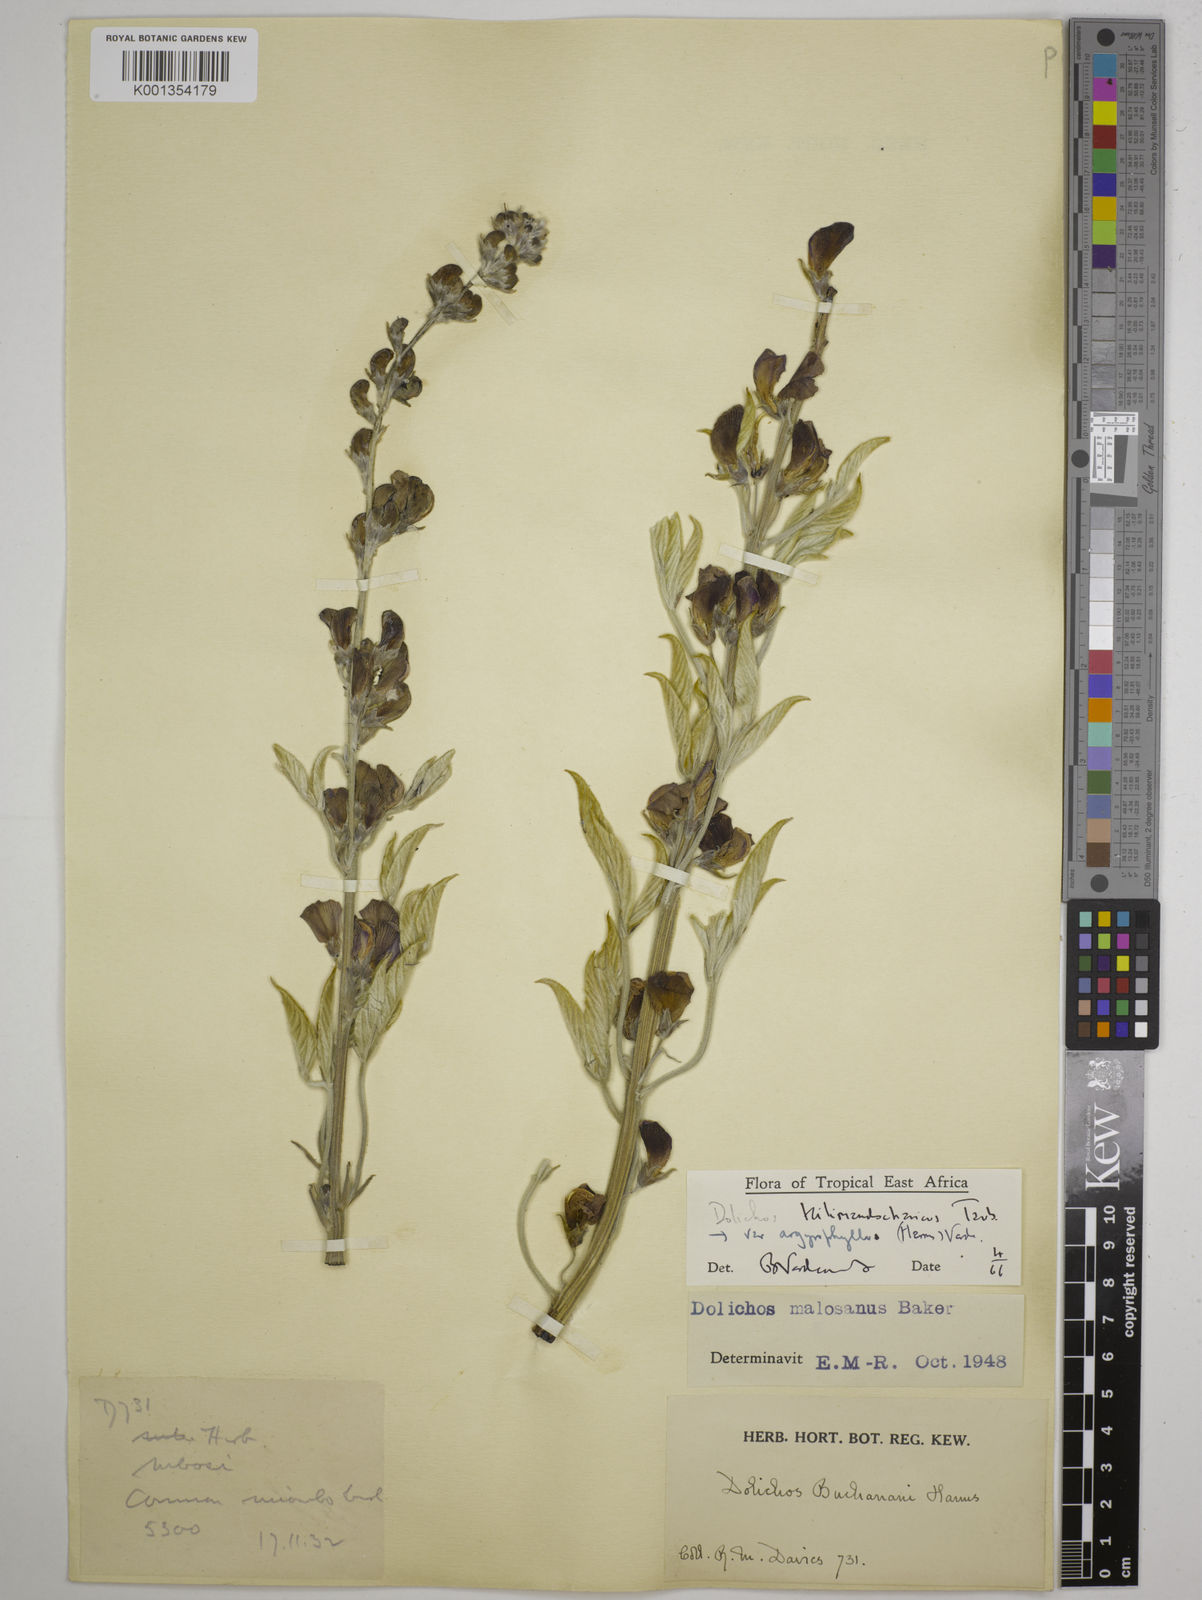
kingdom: Plantae
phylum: Tracheophyta
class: Magnoliopsida
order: Fabales
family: Fabaceae
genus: Dolichos
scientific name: Dolichos kilimandscharicus
